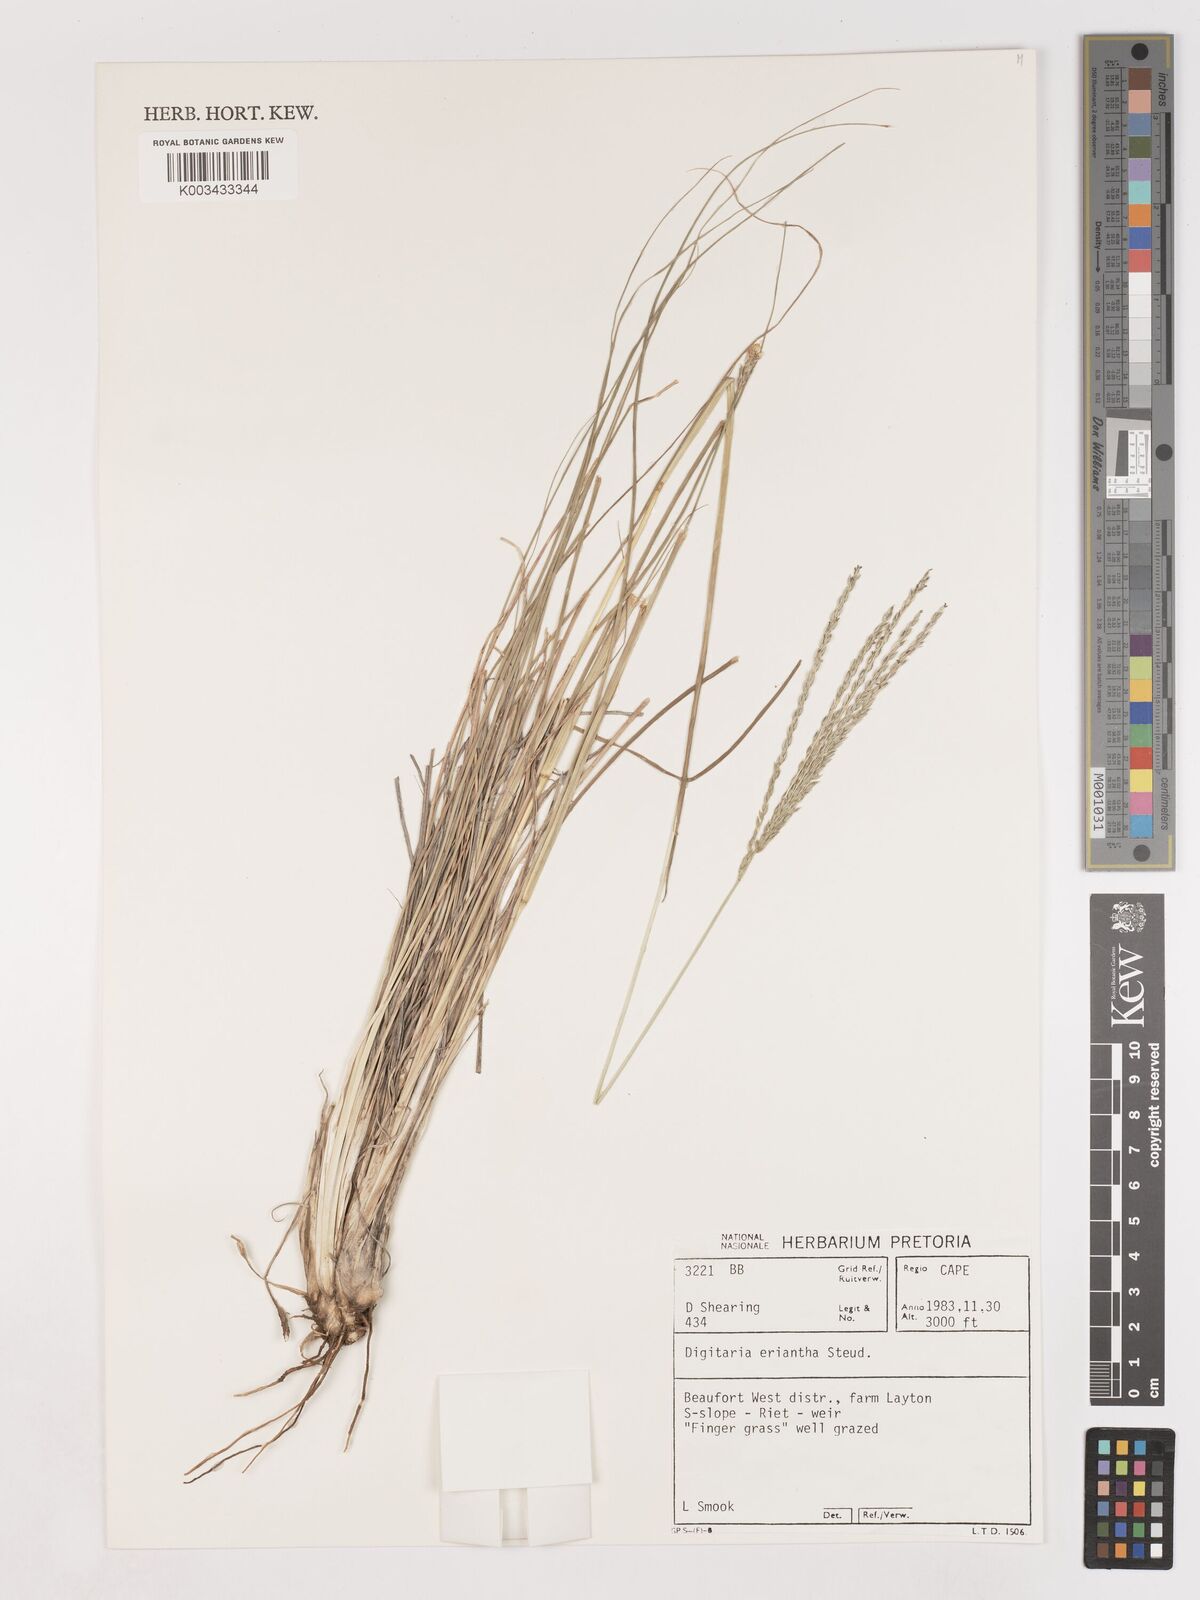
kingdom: Plantae
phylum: Tracheophyta
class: Liliopsida
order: Poales
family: Poaceae
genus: Digitaria
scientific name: Digitaria eriantha
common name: Digitgrass
